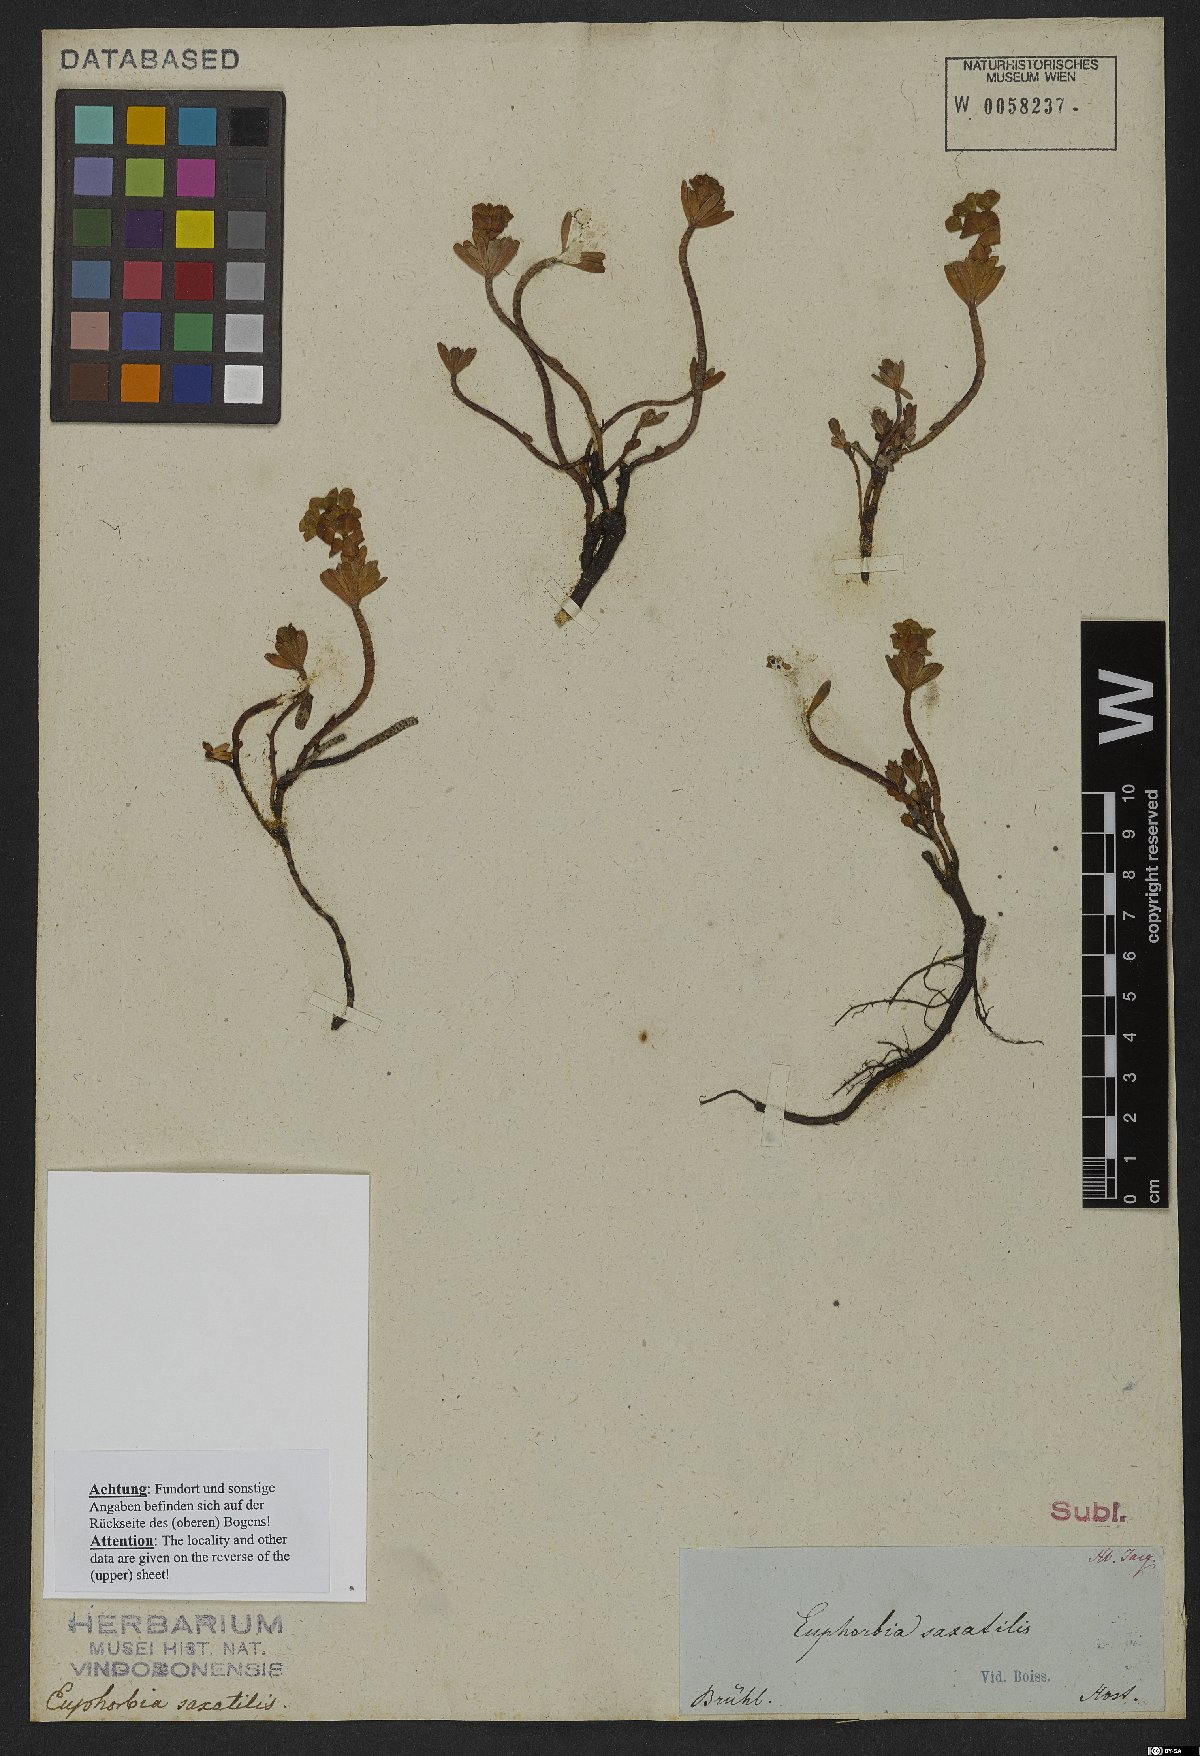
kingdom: Plantae
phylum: Tracheophyta
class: Magnoliopsida
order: Malpighiales
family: Euphorbiaceae
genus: Euphorbia
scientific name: Euphorbia saxatilis
